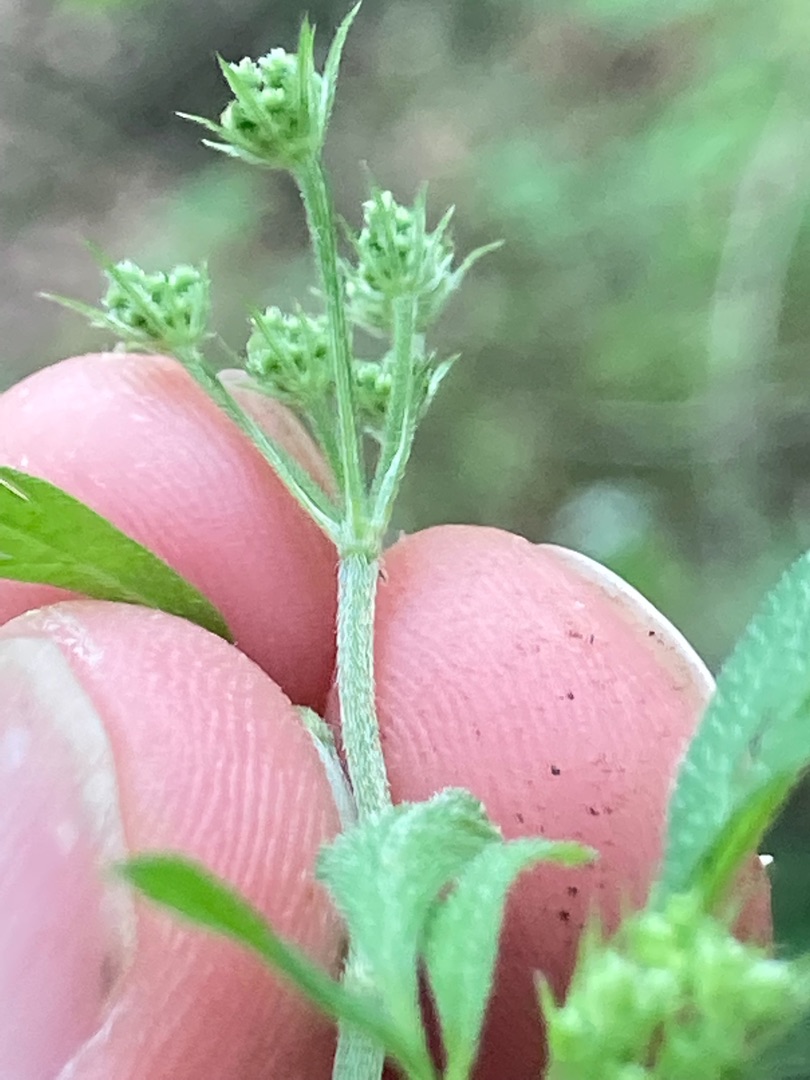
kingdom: Plantae
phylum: Tracheophyta
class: Magnoliopsida
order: Apiales
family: Apiaceae
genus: Torilis
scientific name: Torilis japonica
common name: Hvas randfrø
